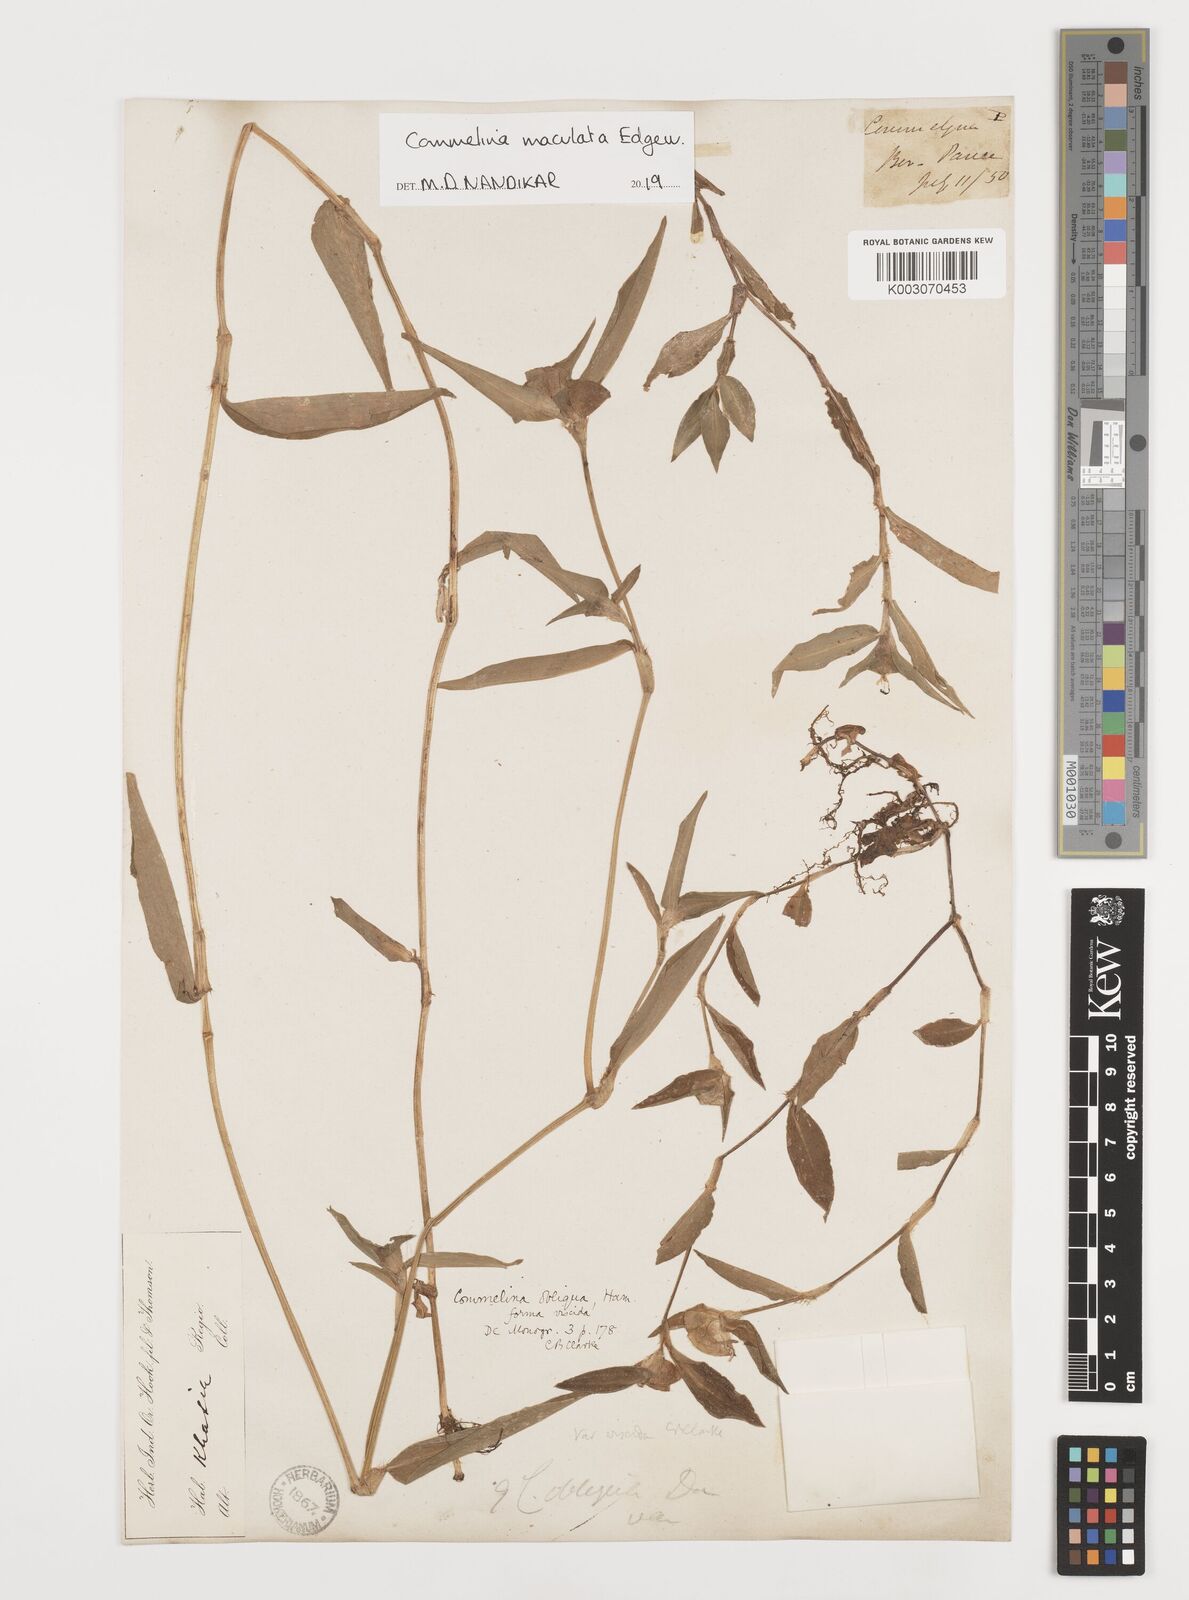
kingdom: Plantae
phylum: Tracheophyta
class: Liliopsida
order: Commelinales
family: Commelinaceae
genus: Commelina
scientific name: Commelina maculata
